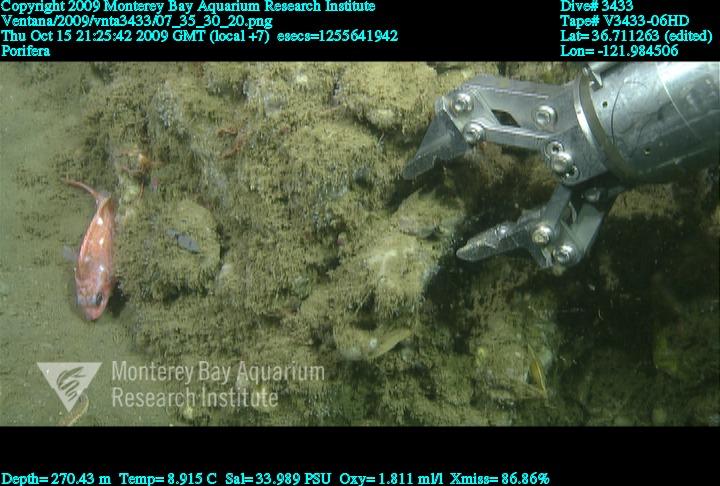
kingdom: Animalia
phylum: Porifera
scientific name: Porifera
